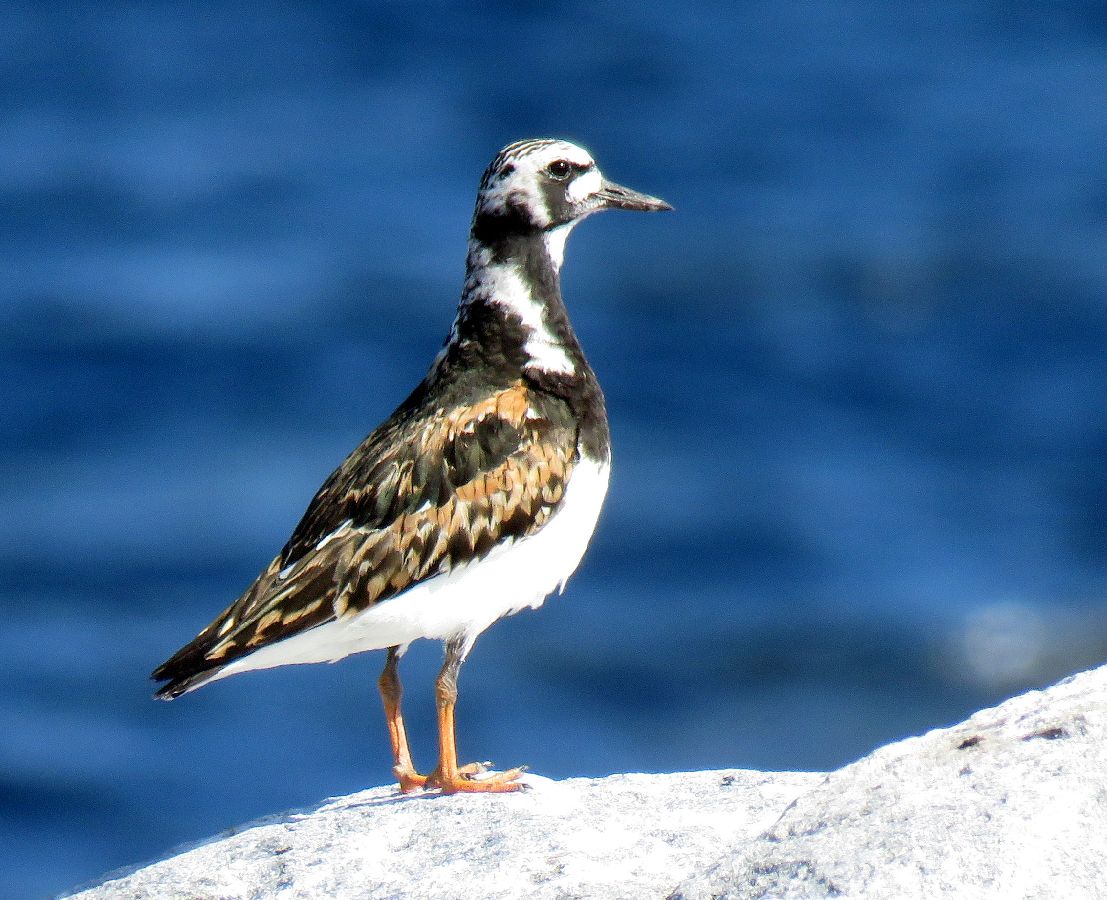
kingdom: Animalia
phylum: Chordata
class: Aves
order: Charadriiformes
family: Scolopacidae
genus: Arenaria
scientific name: Arenaria interpres
